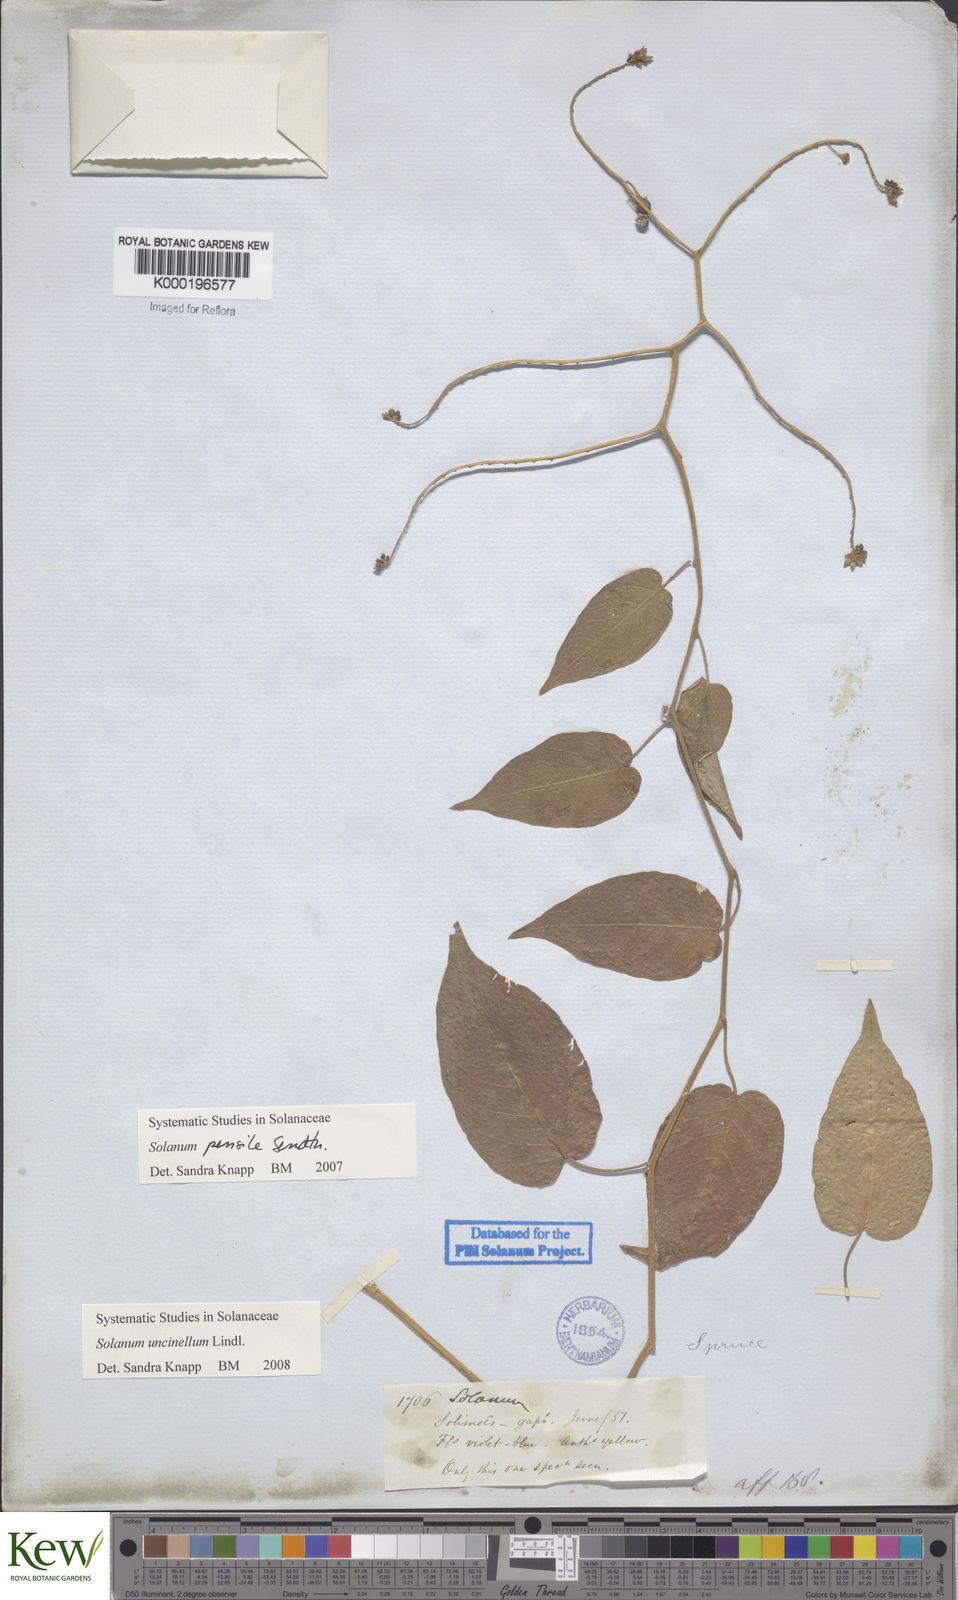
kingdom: Plantae
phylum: Tracheophyta
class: Magnoliopsida
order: Solanales
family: Solanaceae
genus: Solanum
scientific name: Solanum uncinellum
